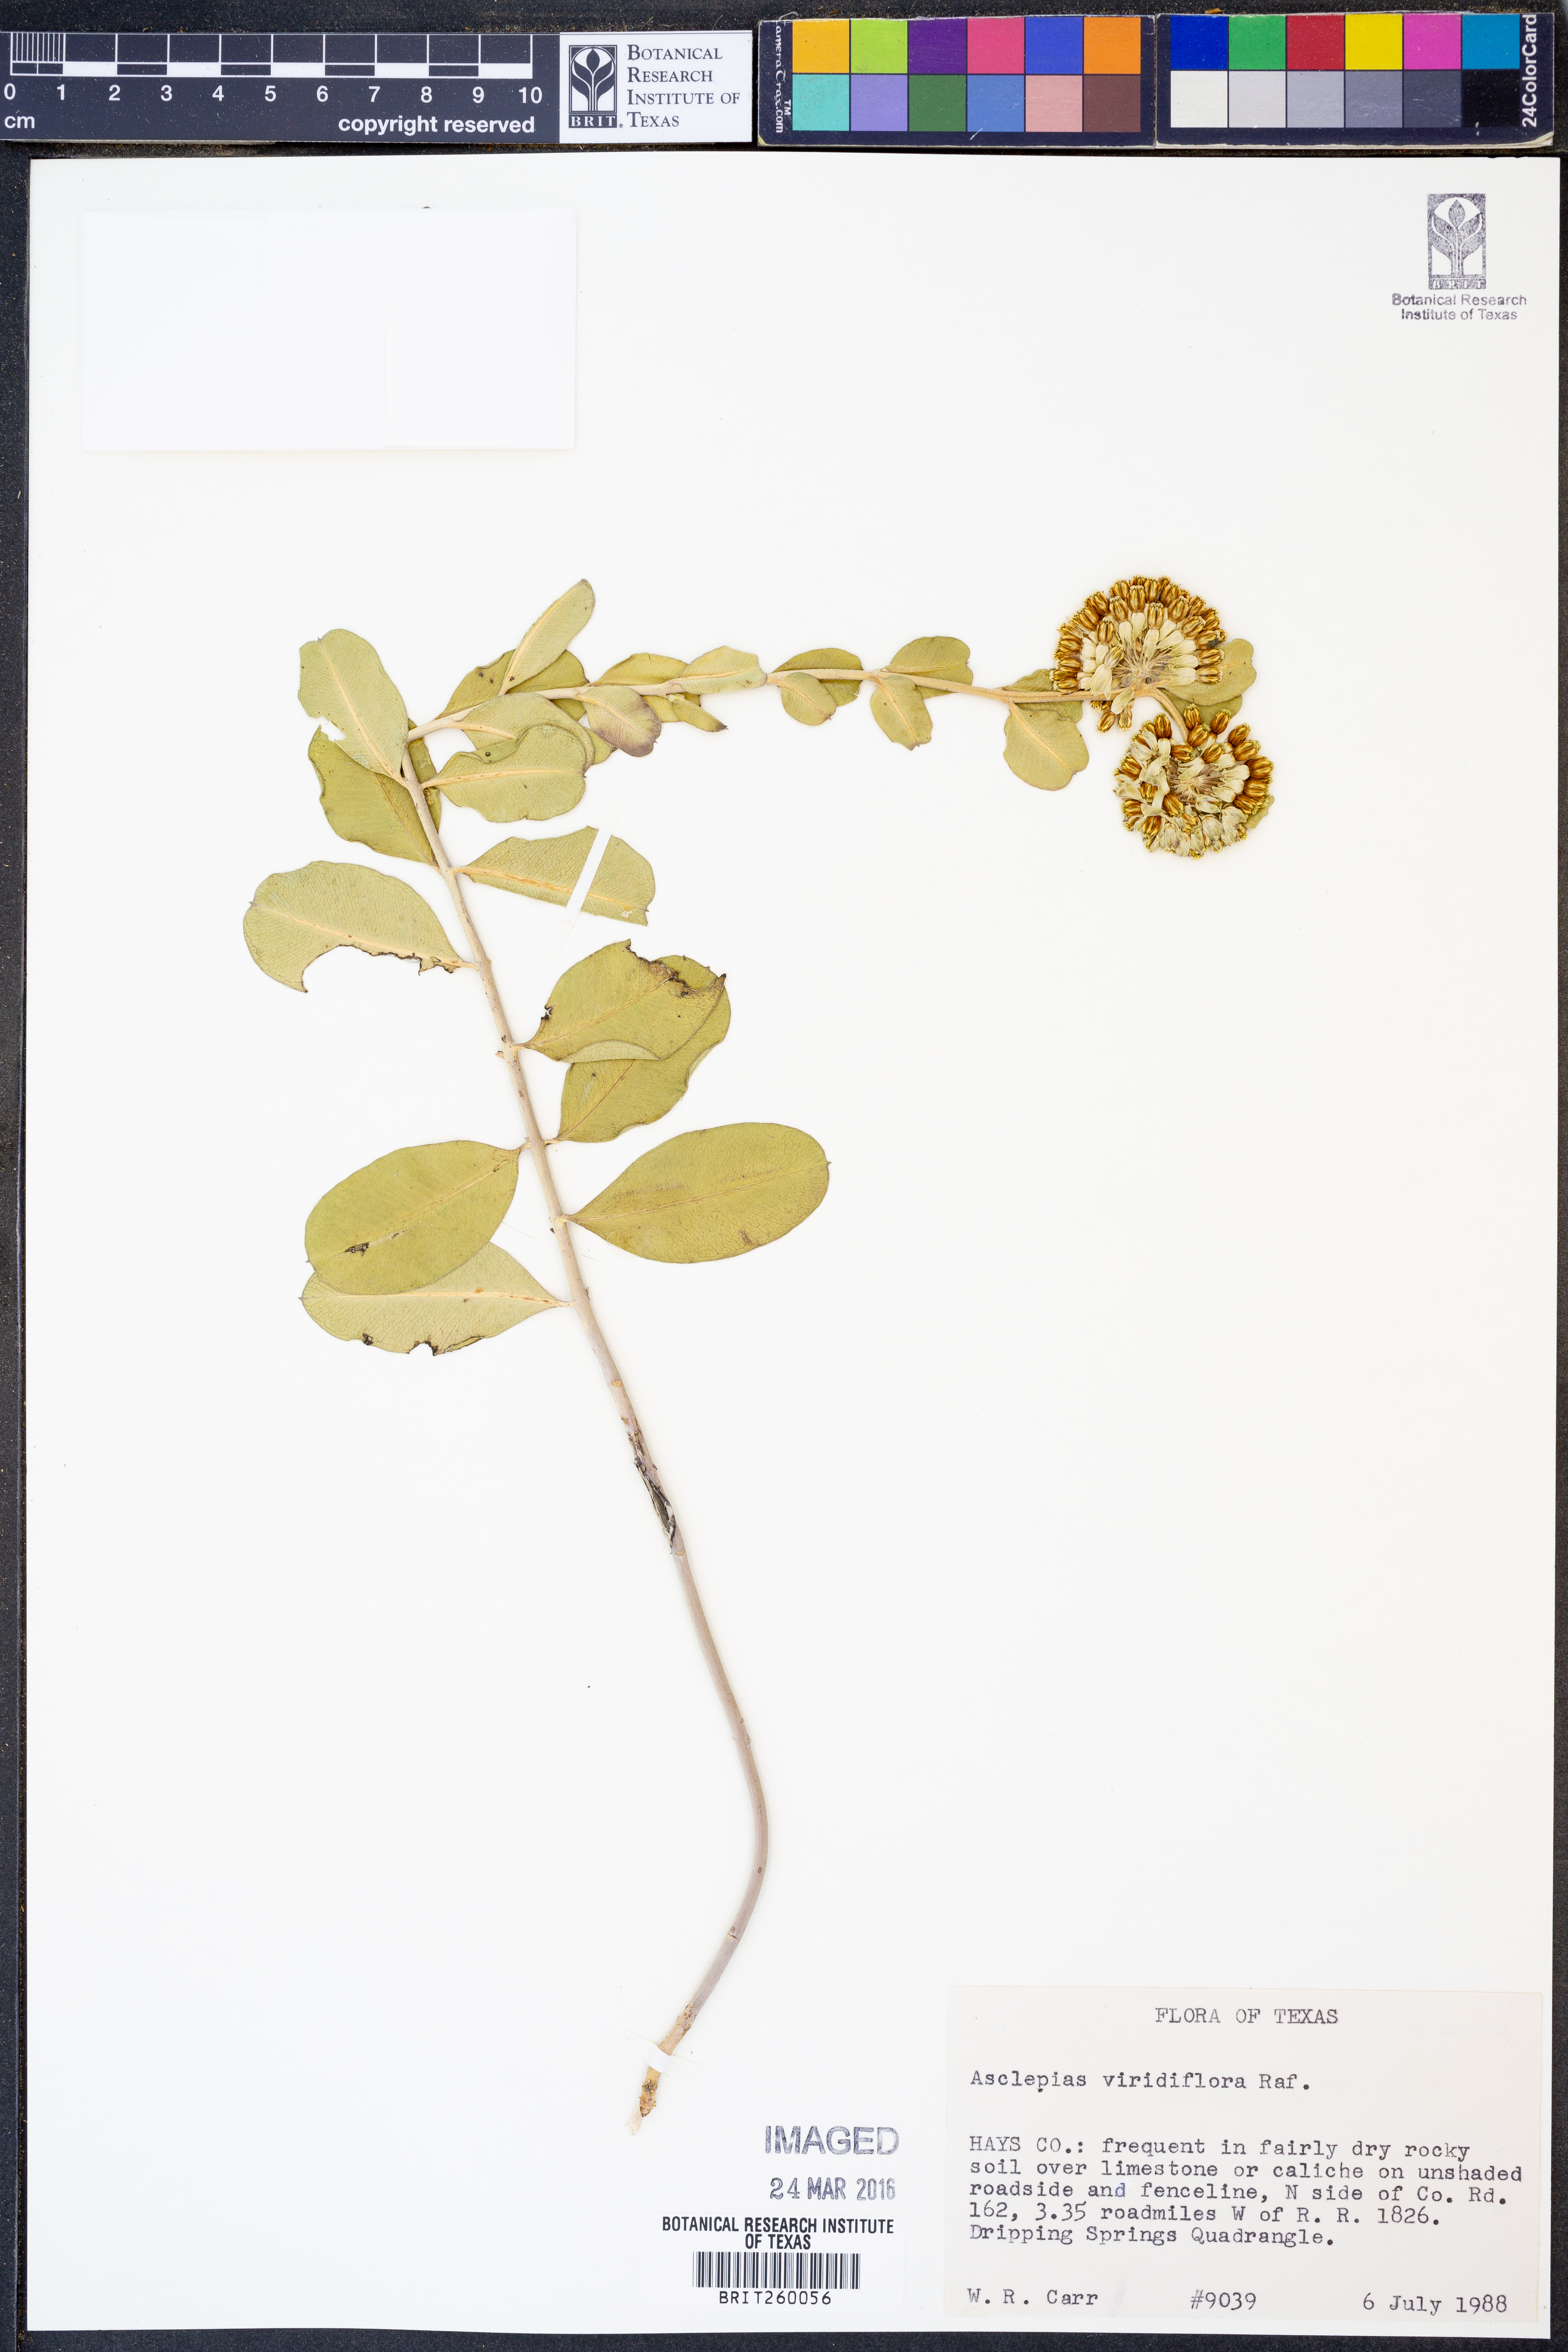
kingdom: Plantae
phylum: Tracheophyta
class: Magnoliopsida
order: Gentianales
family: Apocynaceae
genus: Asclepias
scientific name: Asclepias viridiflora
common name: Green comet milkweed
